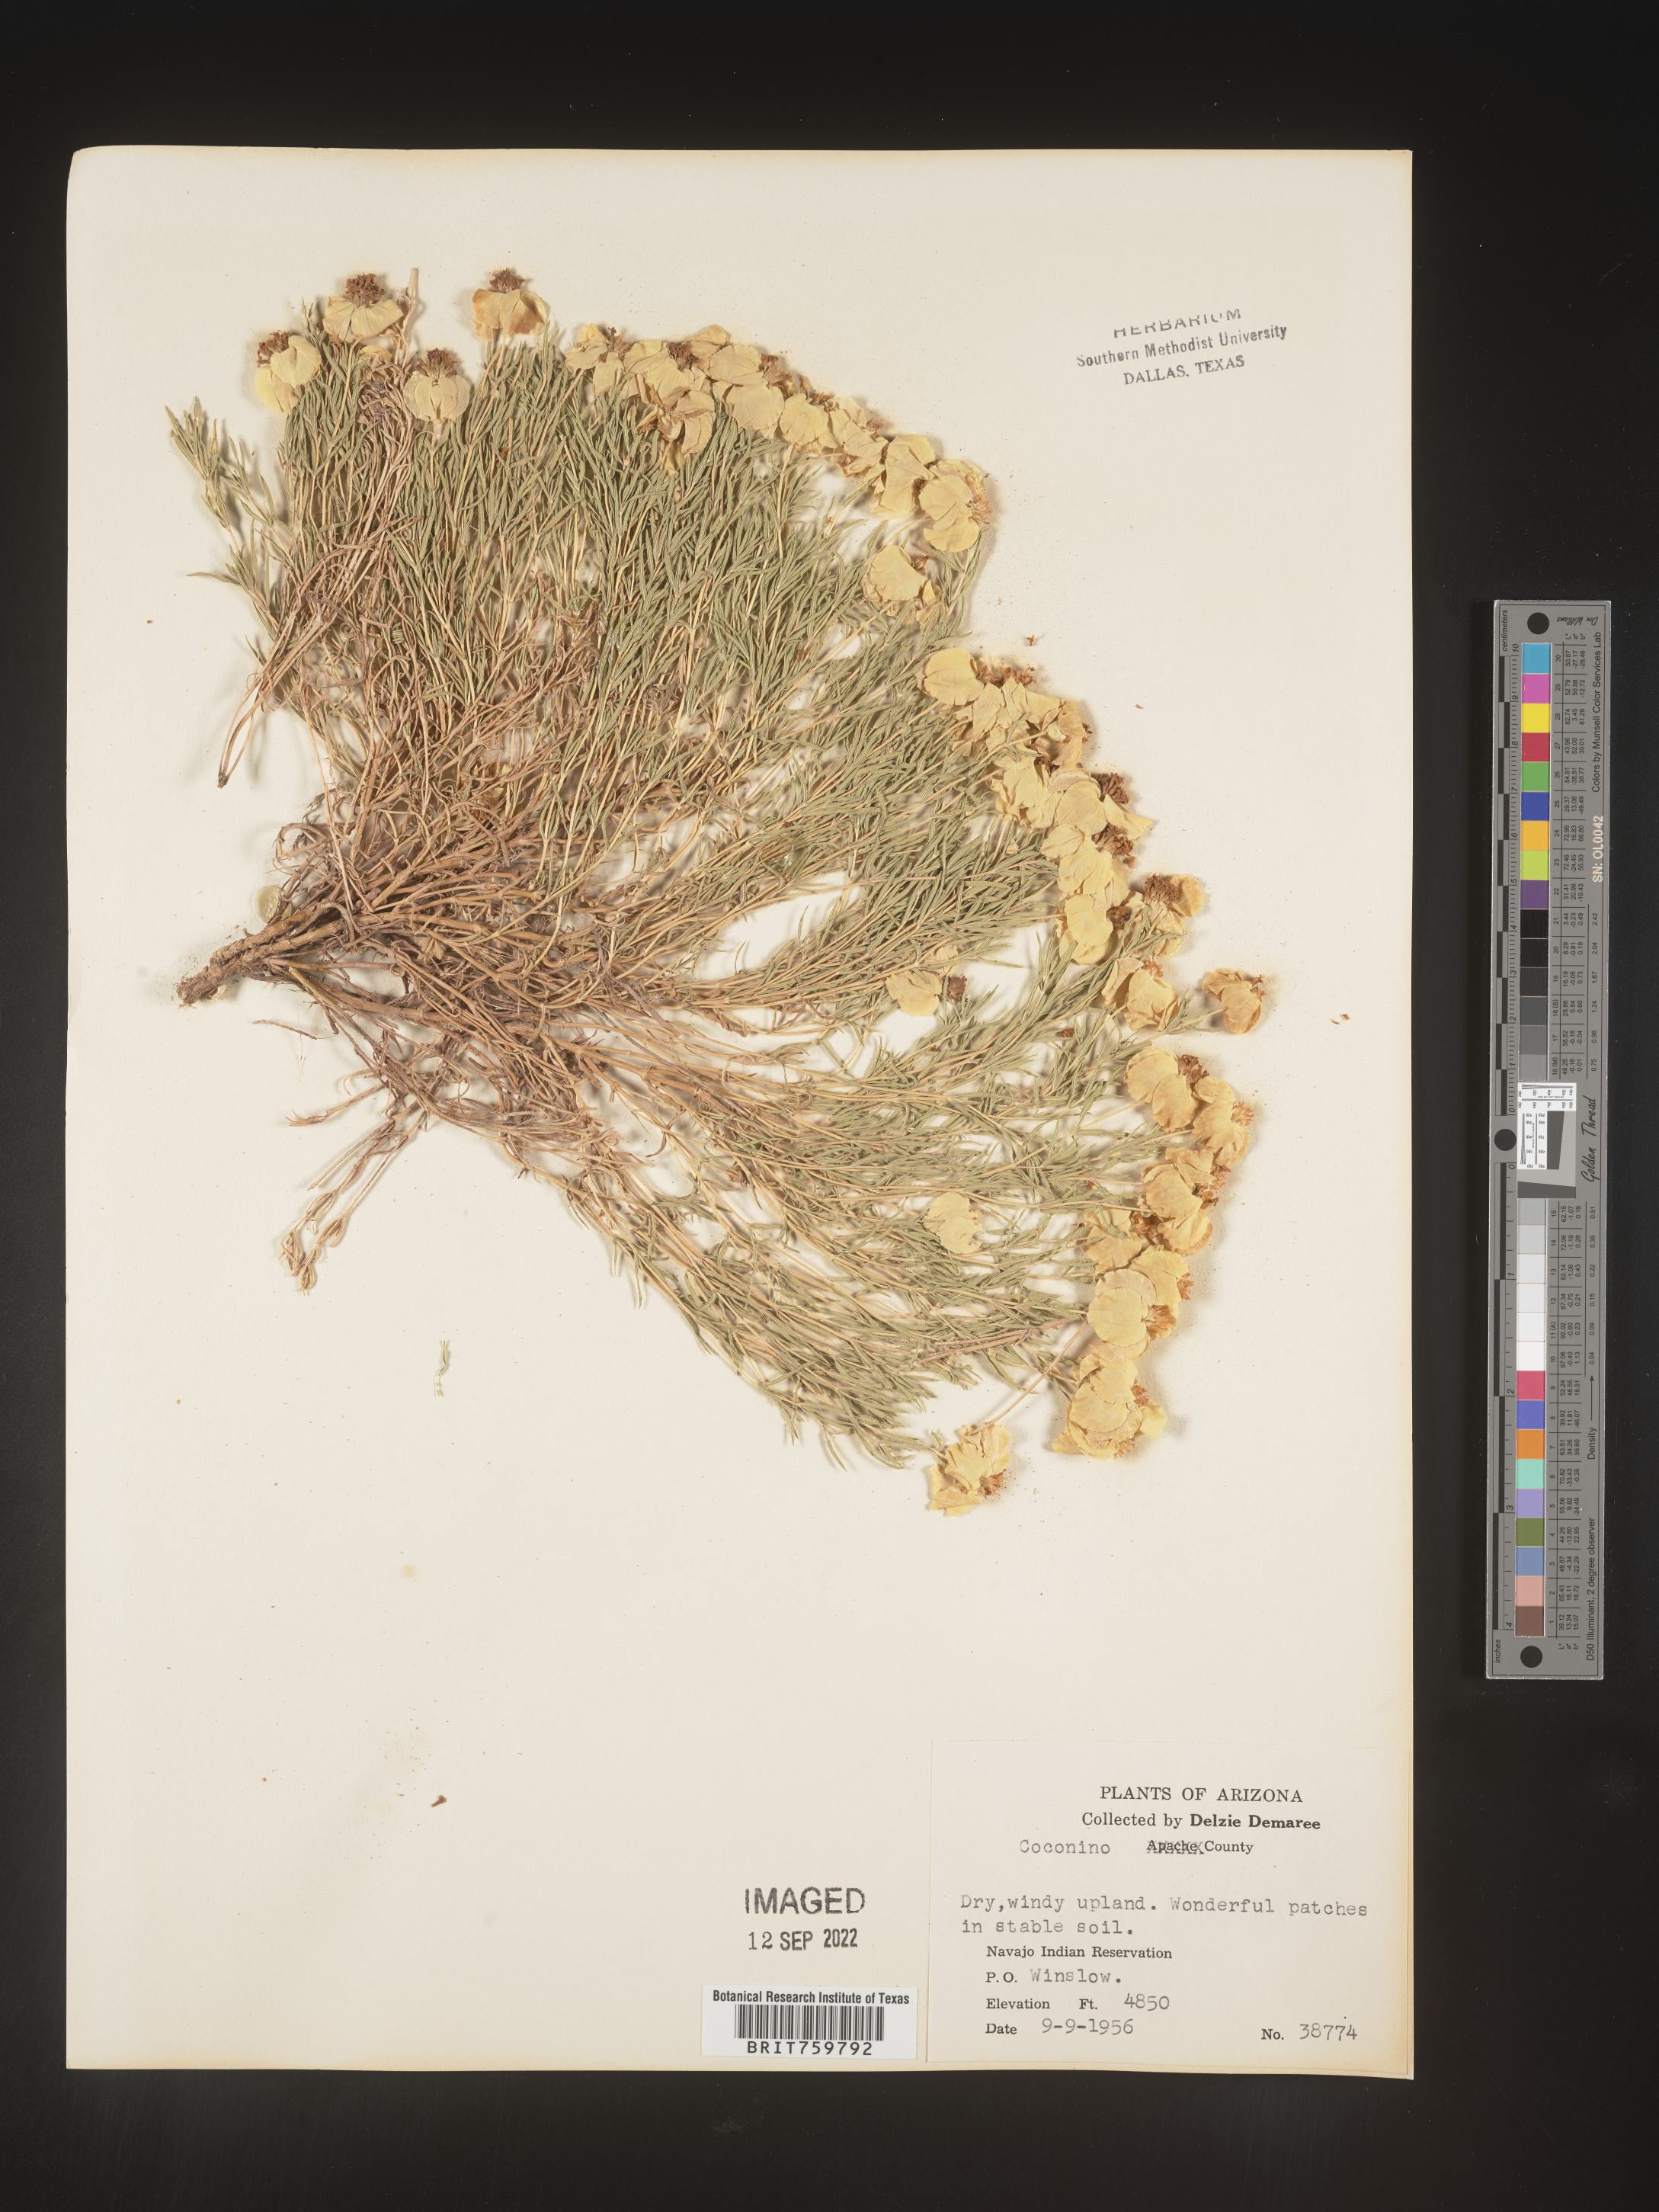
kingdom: Plantae
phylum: Tracheophyta
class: Magnoliopsida
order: Asterales
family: Asteraceae
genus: Zinnia
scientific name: Zinnia grandiflora
